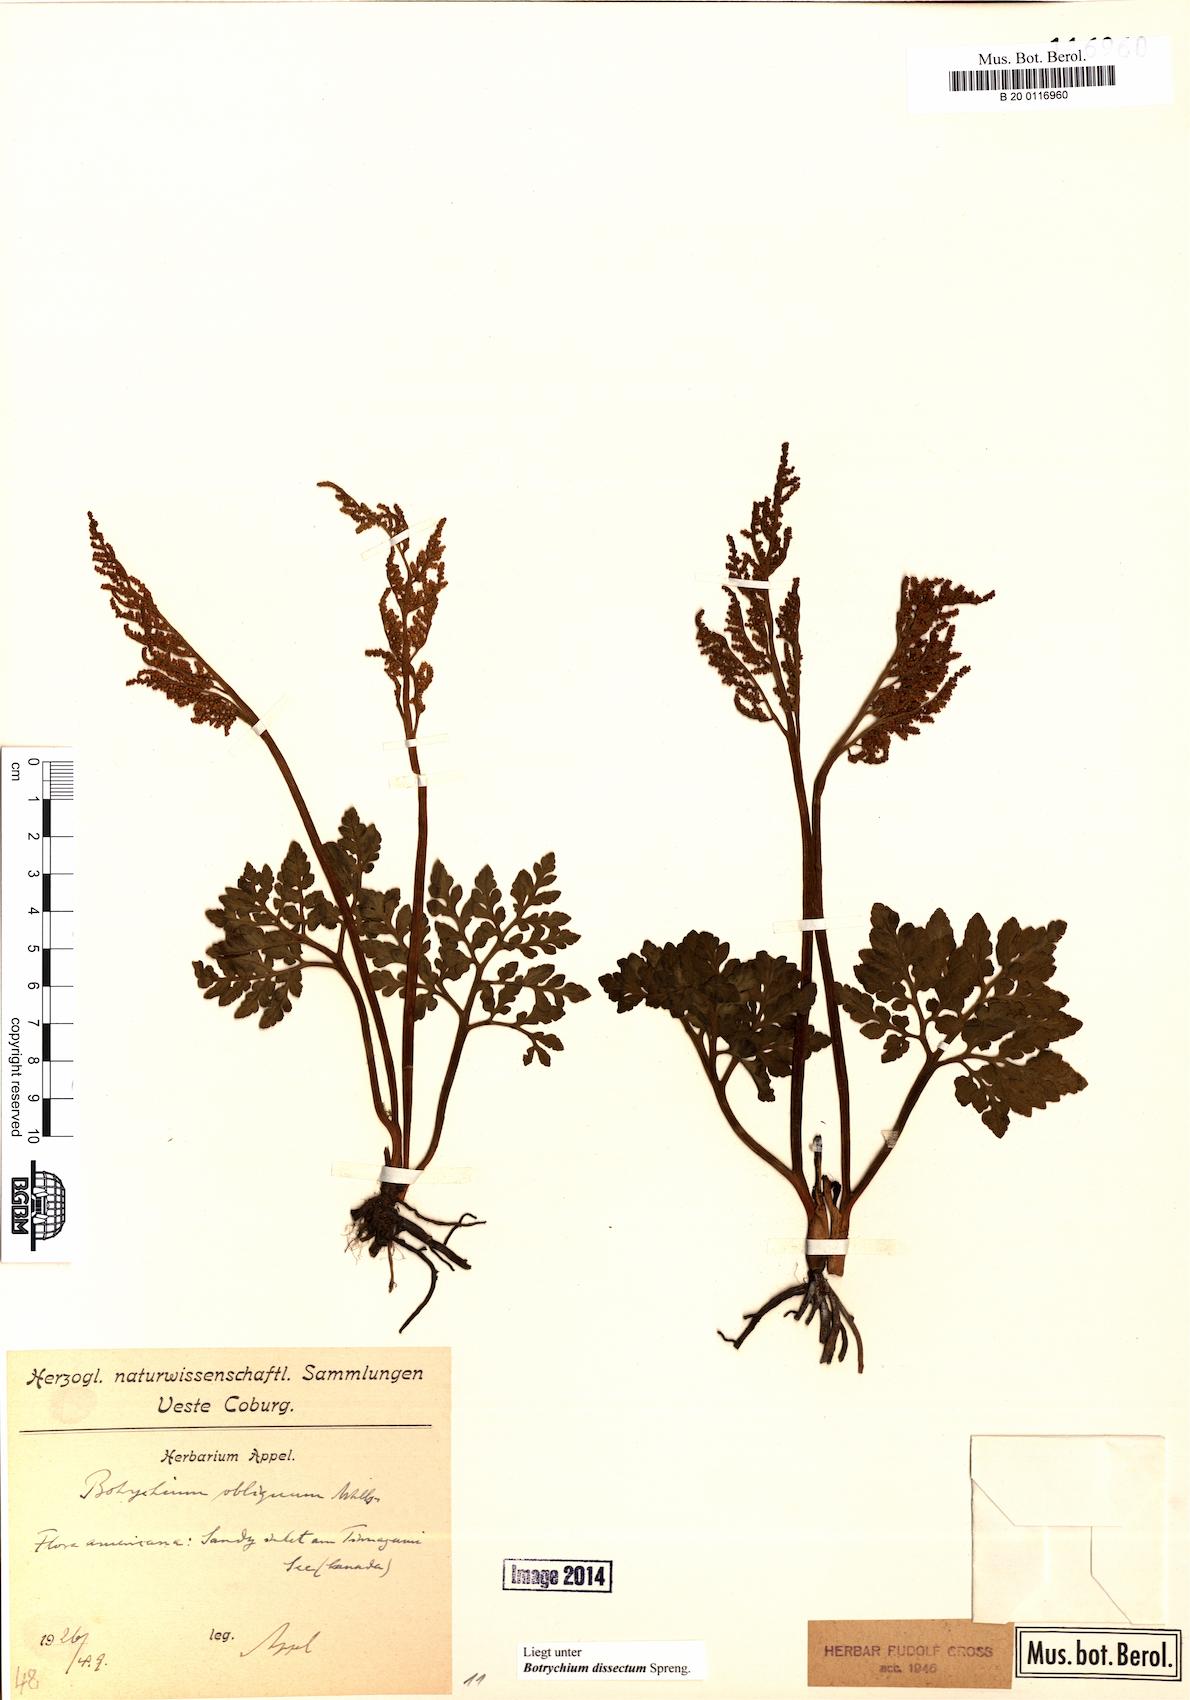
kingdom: Plantae
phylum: Tracheophyta
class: Polypodiopsida
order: Ophioglossales
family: Ophioglossaceae
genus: Sceptridium
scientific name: Sceptridium dissectum
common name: Cut-leaved grapefern
